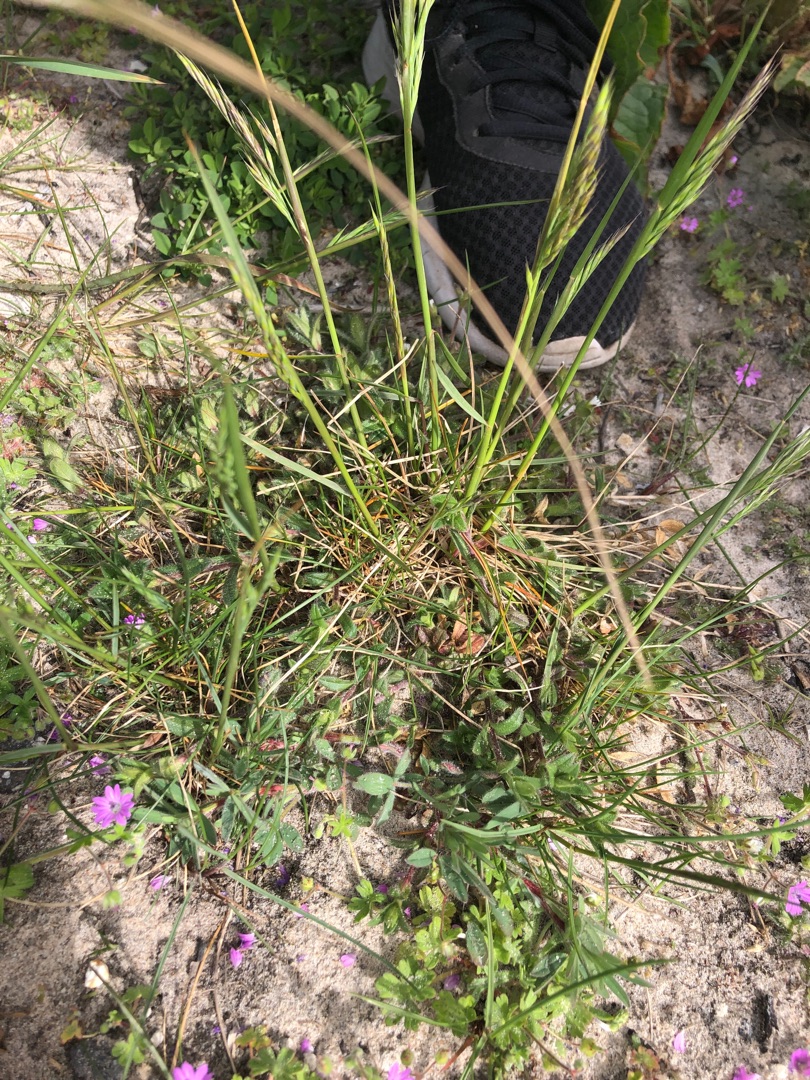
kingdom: Plantae
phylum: Tracheophyta
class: Liliopsida
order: Poales
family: Poaceae
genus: Festuca
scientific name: Festuca rubra
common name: Rød svingel
